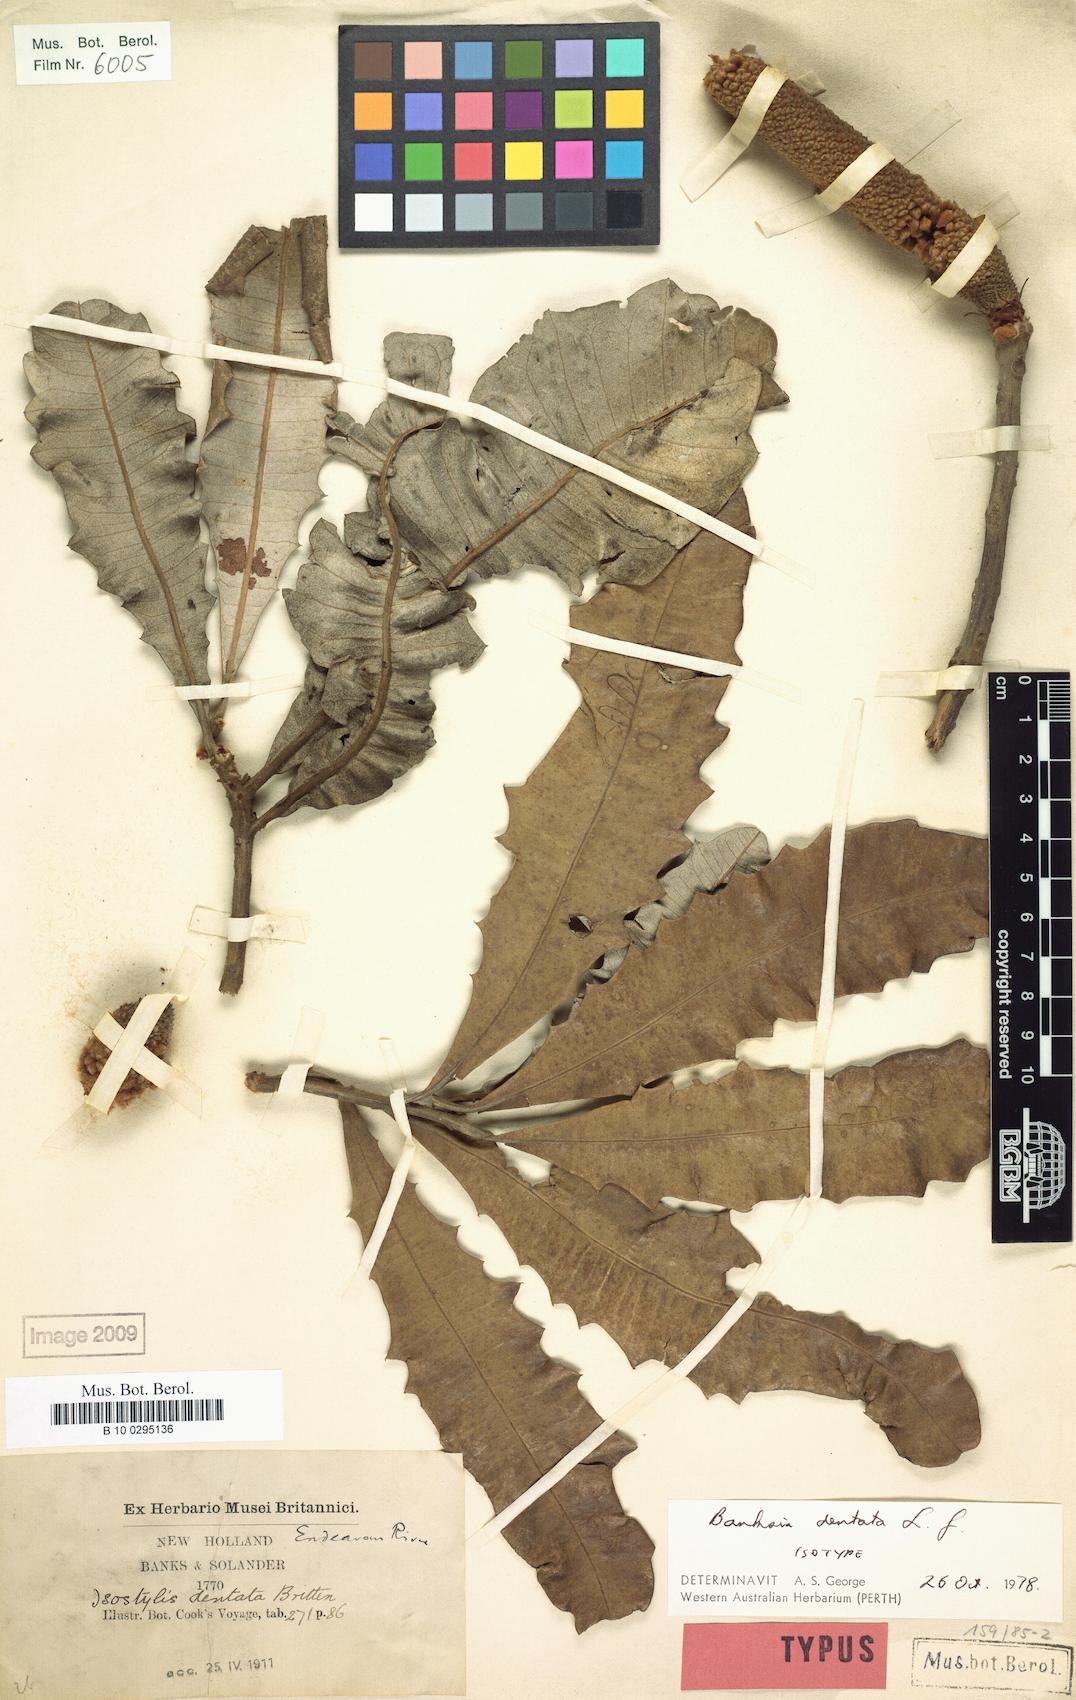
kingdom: Plantae
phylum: Tracheophyta
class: Magnoliopsida
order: Proteales
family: Proteaceae
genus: Banksia
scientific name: Banksia dentata
